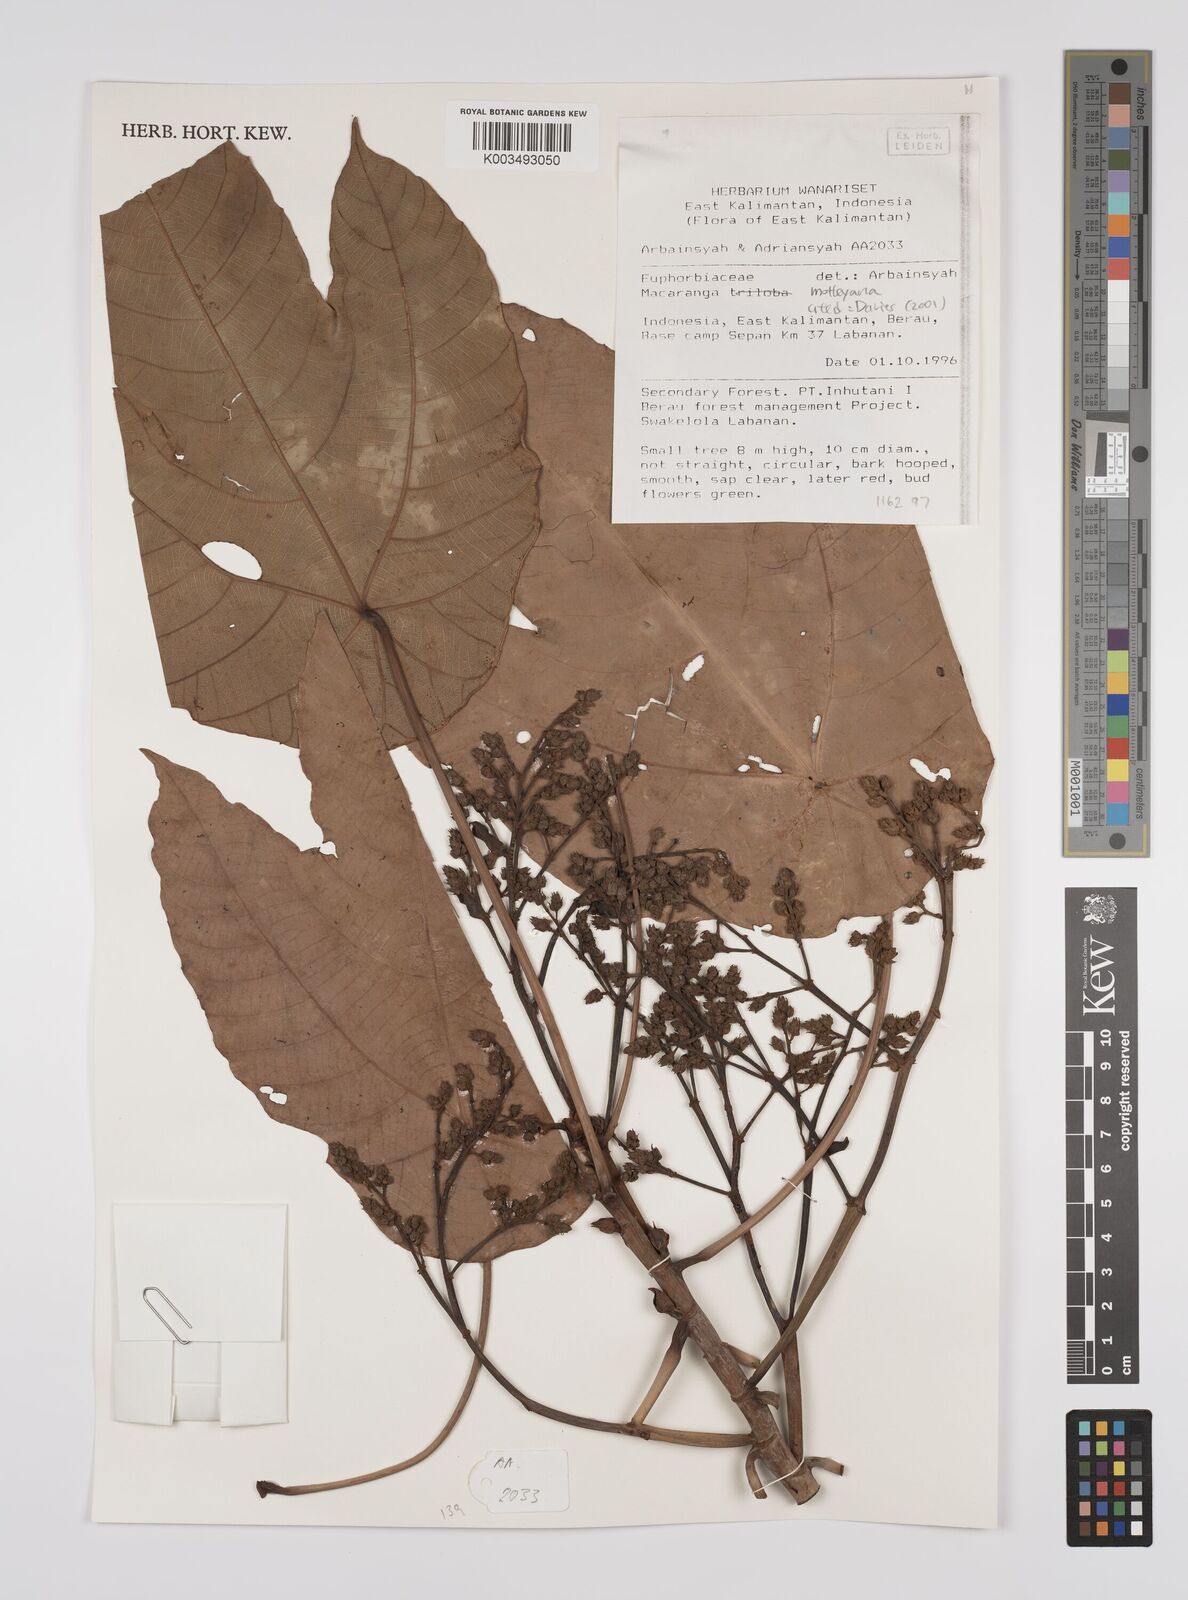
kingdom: Plantae
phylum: Tracheophyta
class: Magnoliopsida
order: Malpighiales
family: Euphorbiaceae
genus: Macaranga
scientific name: Macaranga motleyana
